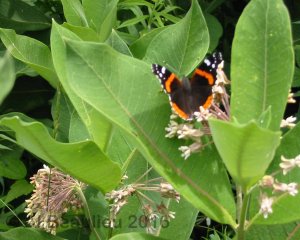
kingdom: Animalia
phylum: Arthropoda
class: Insecta
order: Lepidoptera
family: Nymphalidae
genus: Vanessa
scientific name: Vanessa atalanta
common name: Red Admiral
